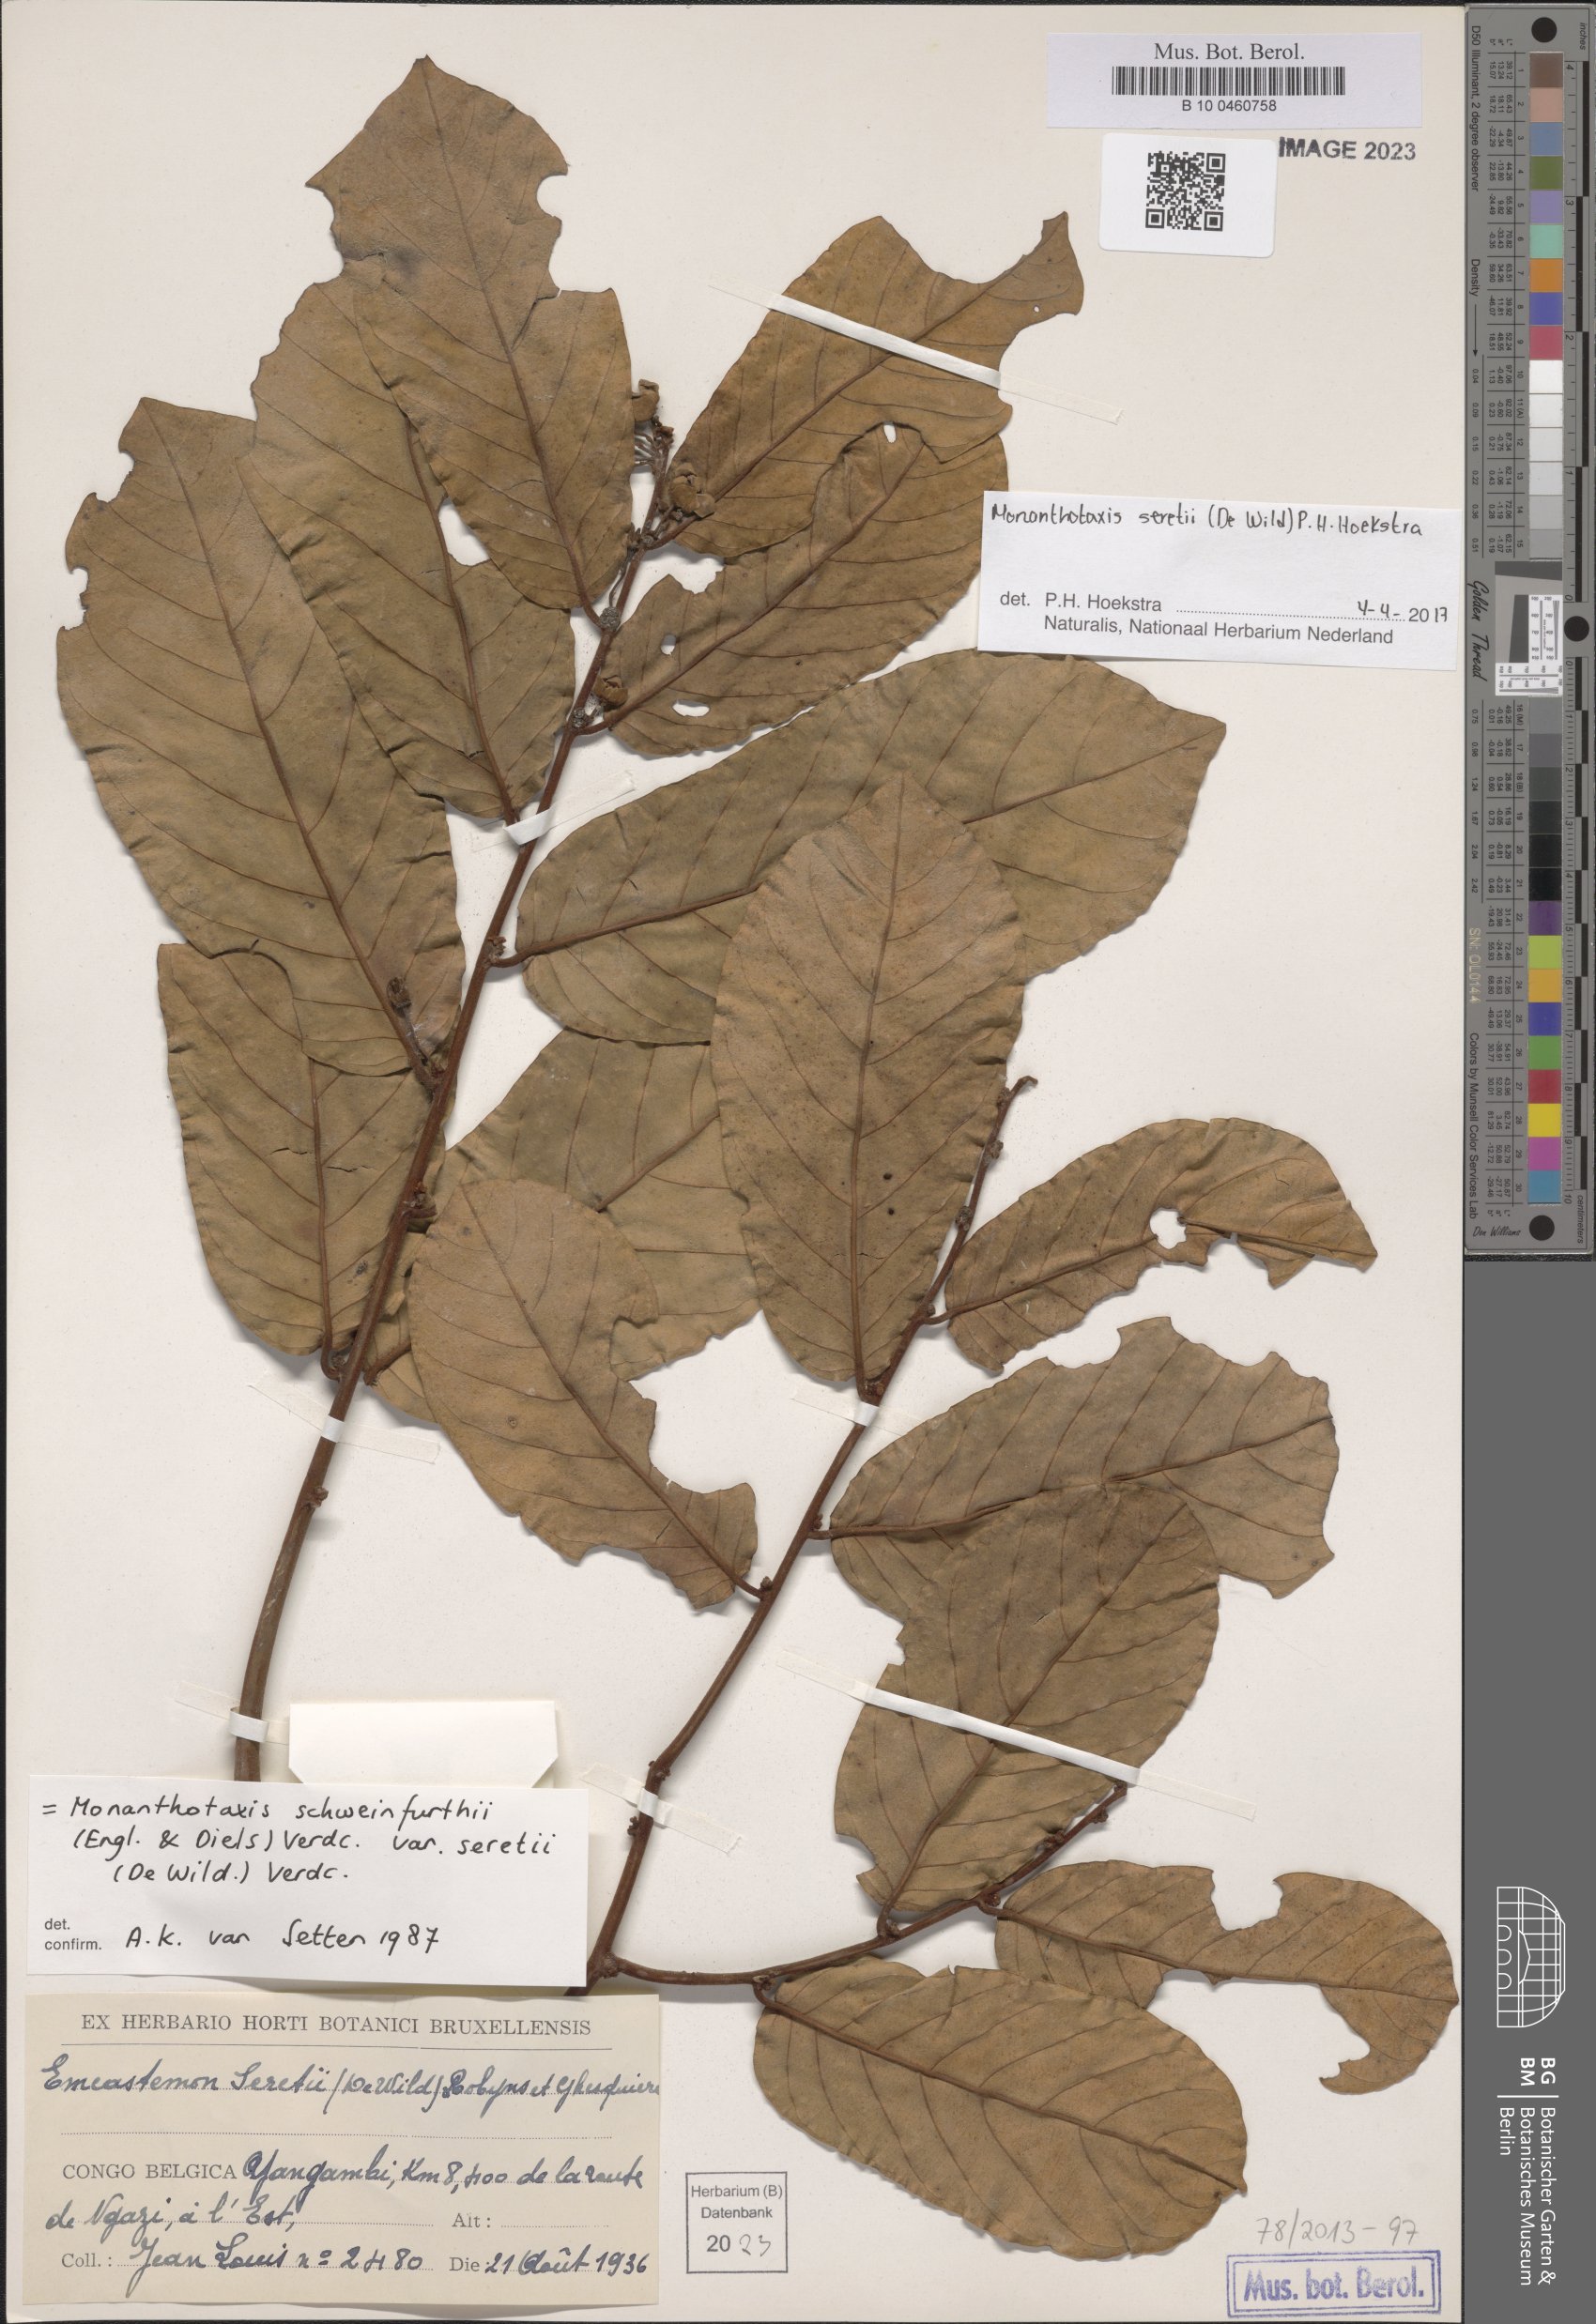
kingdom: Plantae
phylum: Tracheophyta
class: Magnoliopsida
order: Magnoliales
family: Annonaceae
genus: Monanthotaxis
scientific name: Monanthotaxis
